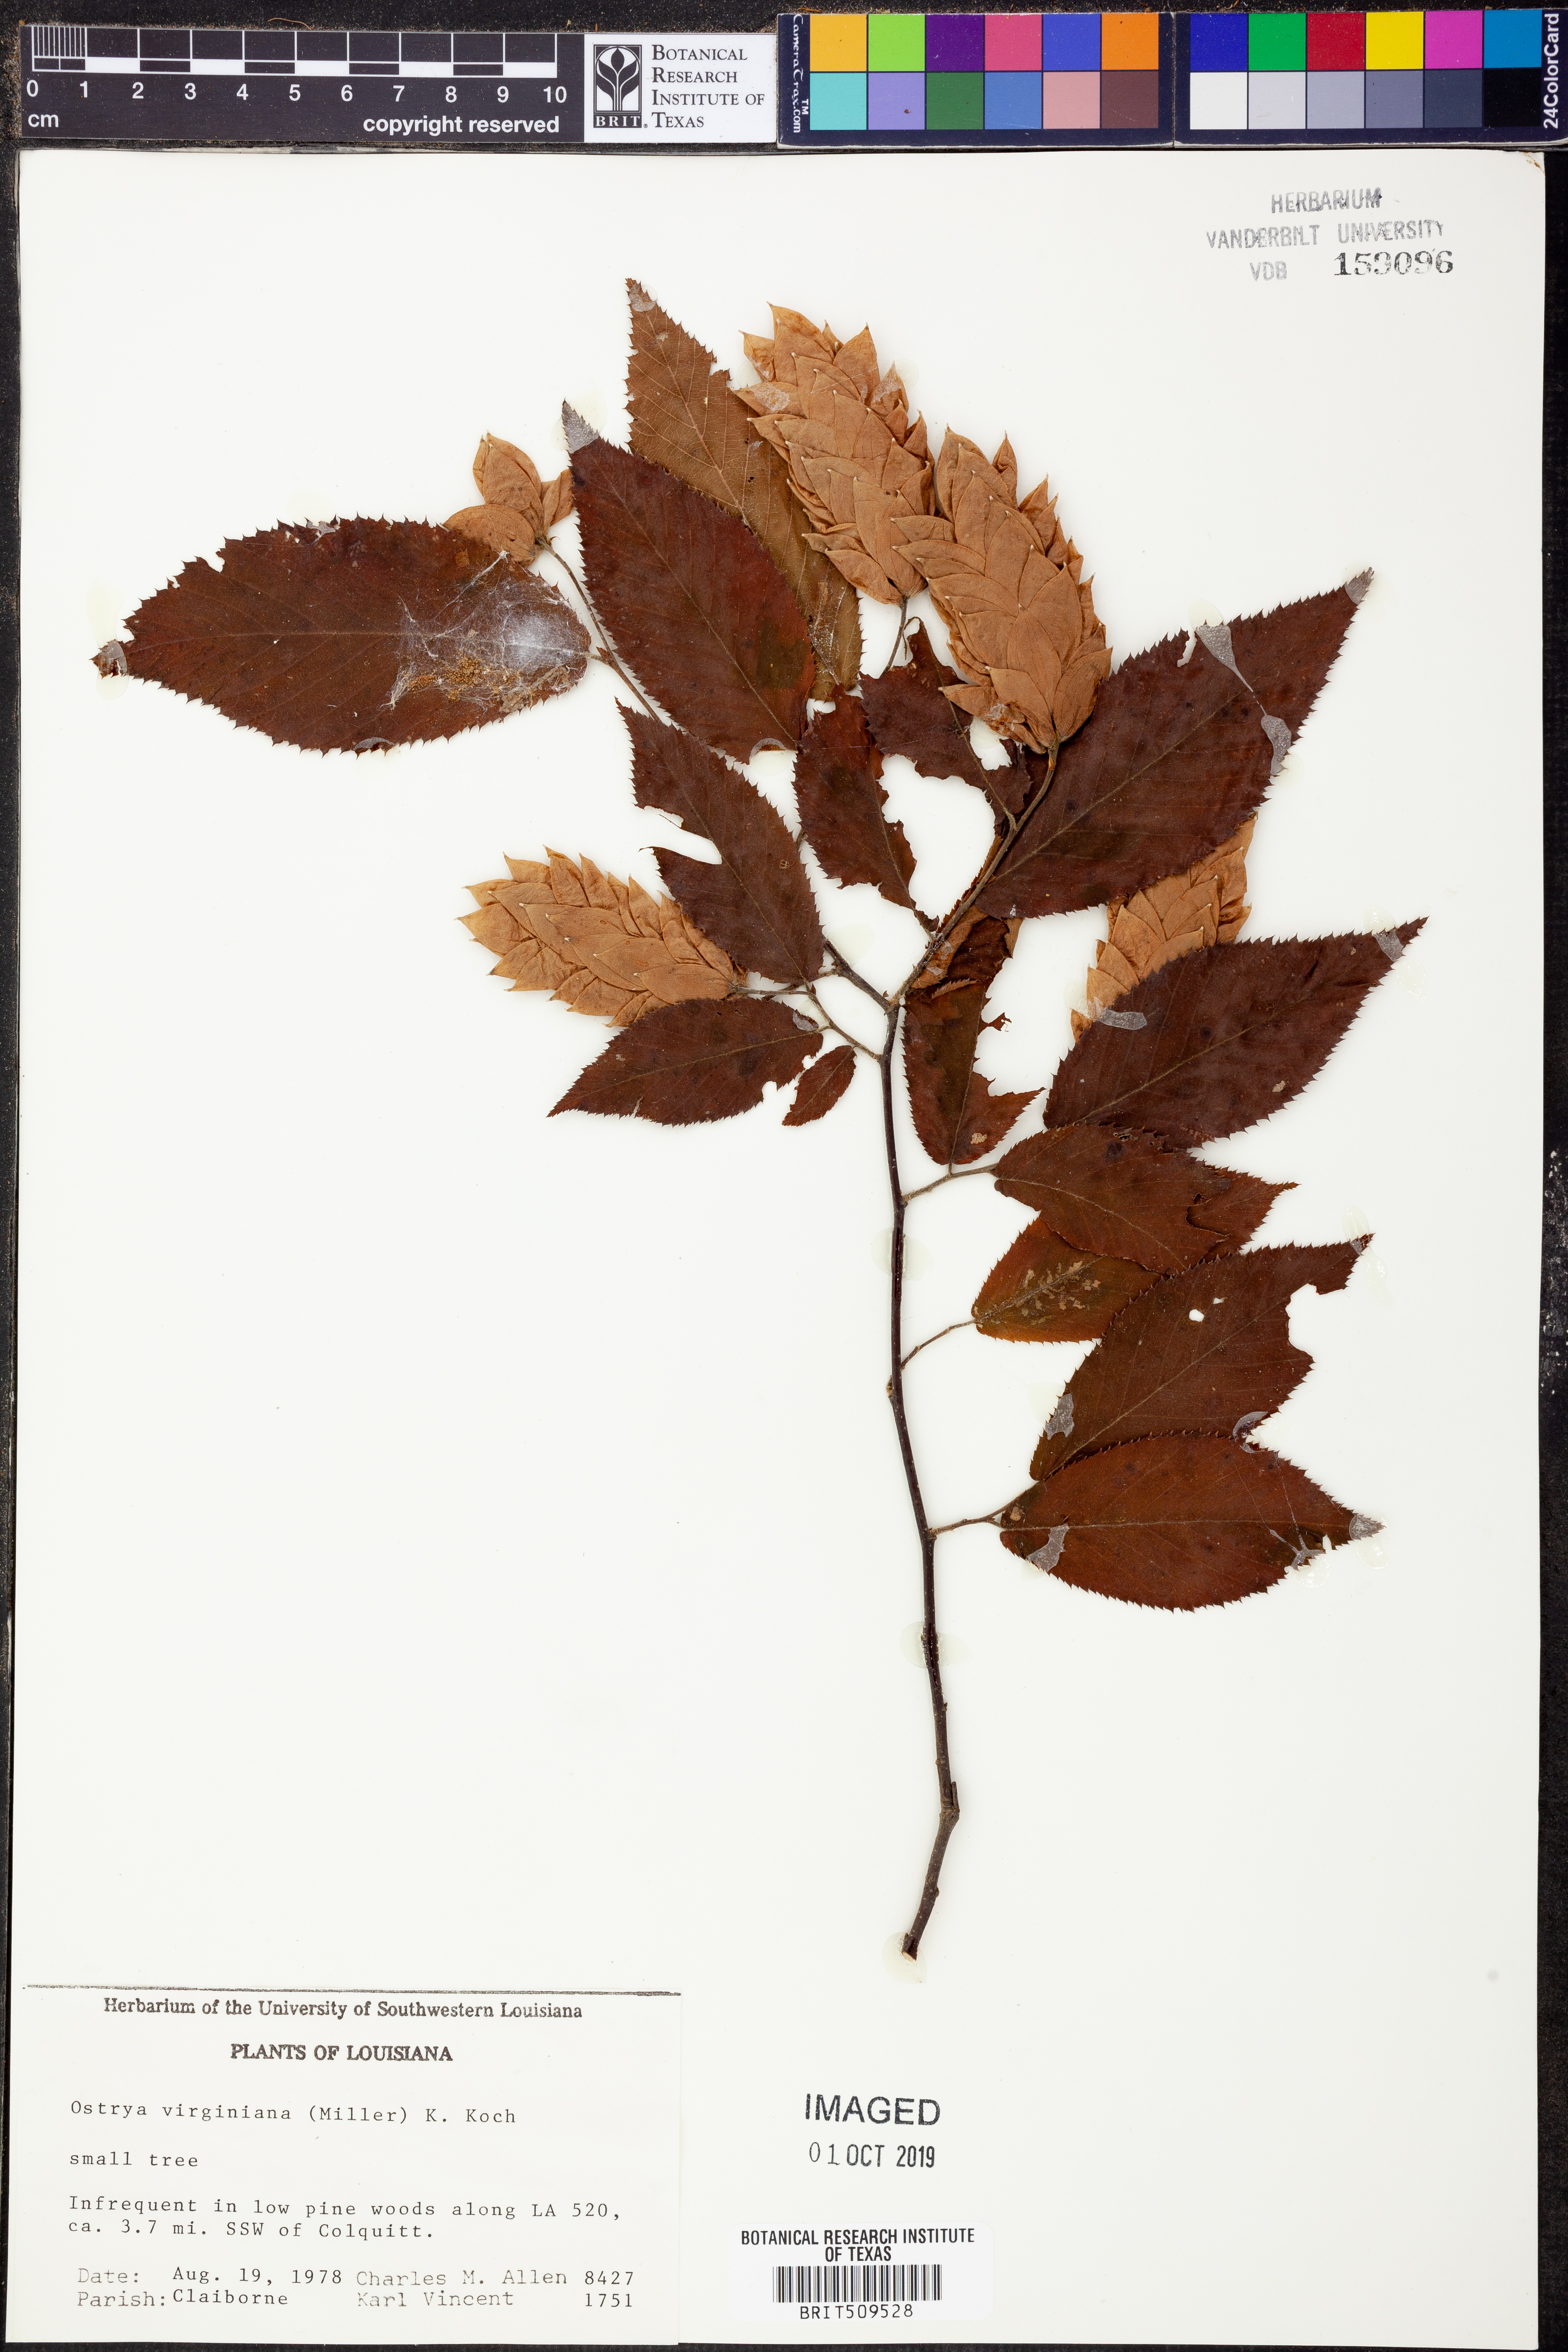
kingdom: Plantae
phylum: Tracheophyta
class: Magnoliopsida
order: Fagales
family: Betulaceae
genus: Ostrya
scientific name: Ostrya virginiana
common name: Ironwood
